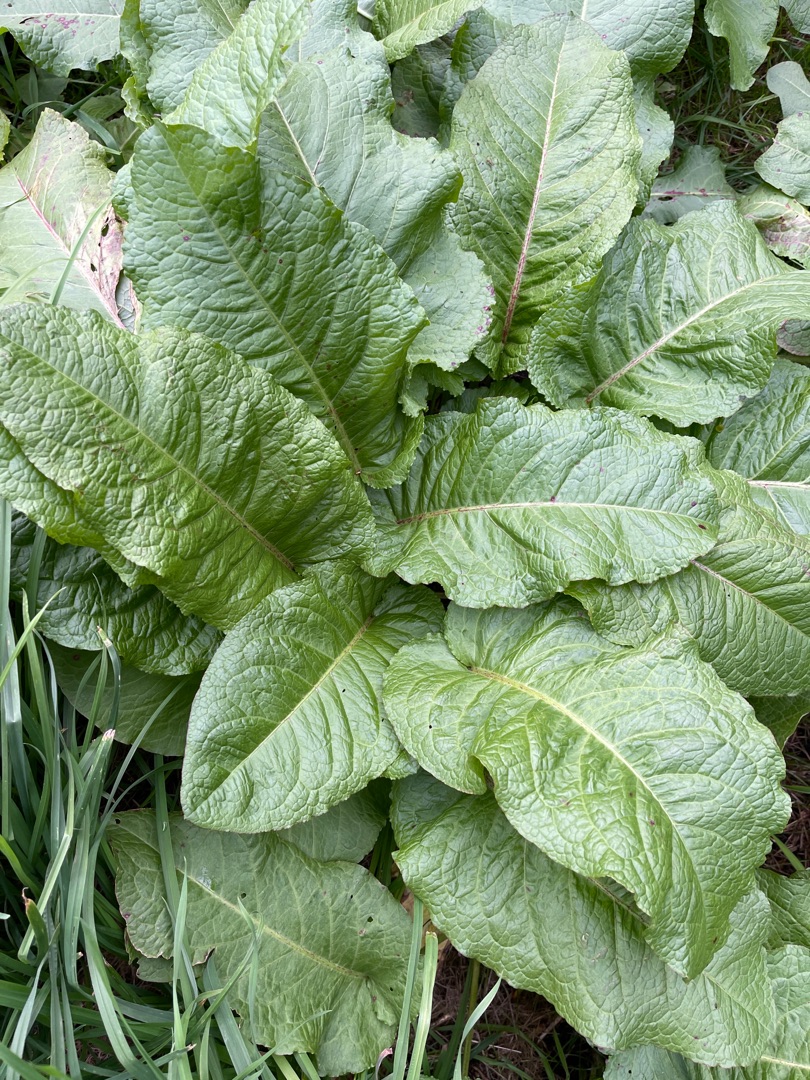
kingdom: Plantae
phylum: Tracheophyta
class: Magnoliopsida
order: Caryophyllales
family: Polygonaceae
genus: Rumex
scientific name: Rumex obtusifolius
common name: Butbladet skræppe
